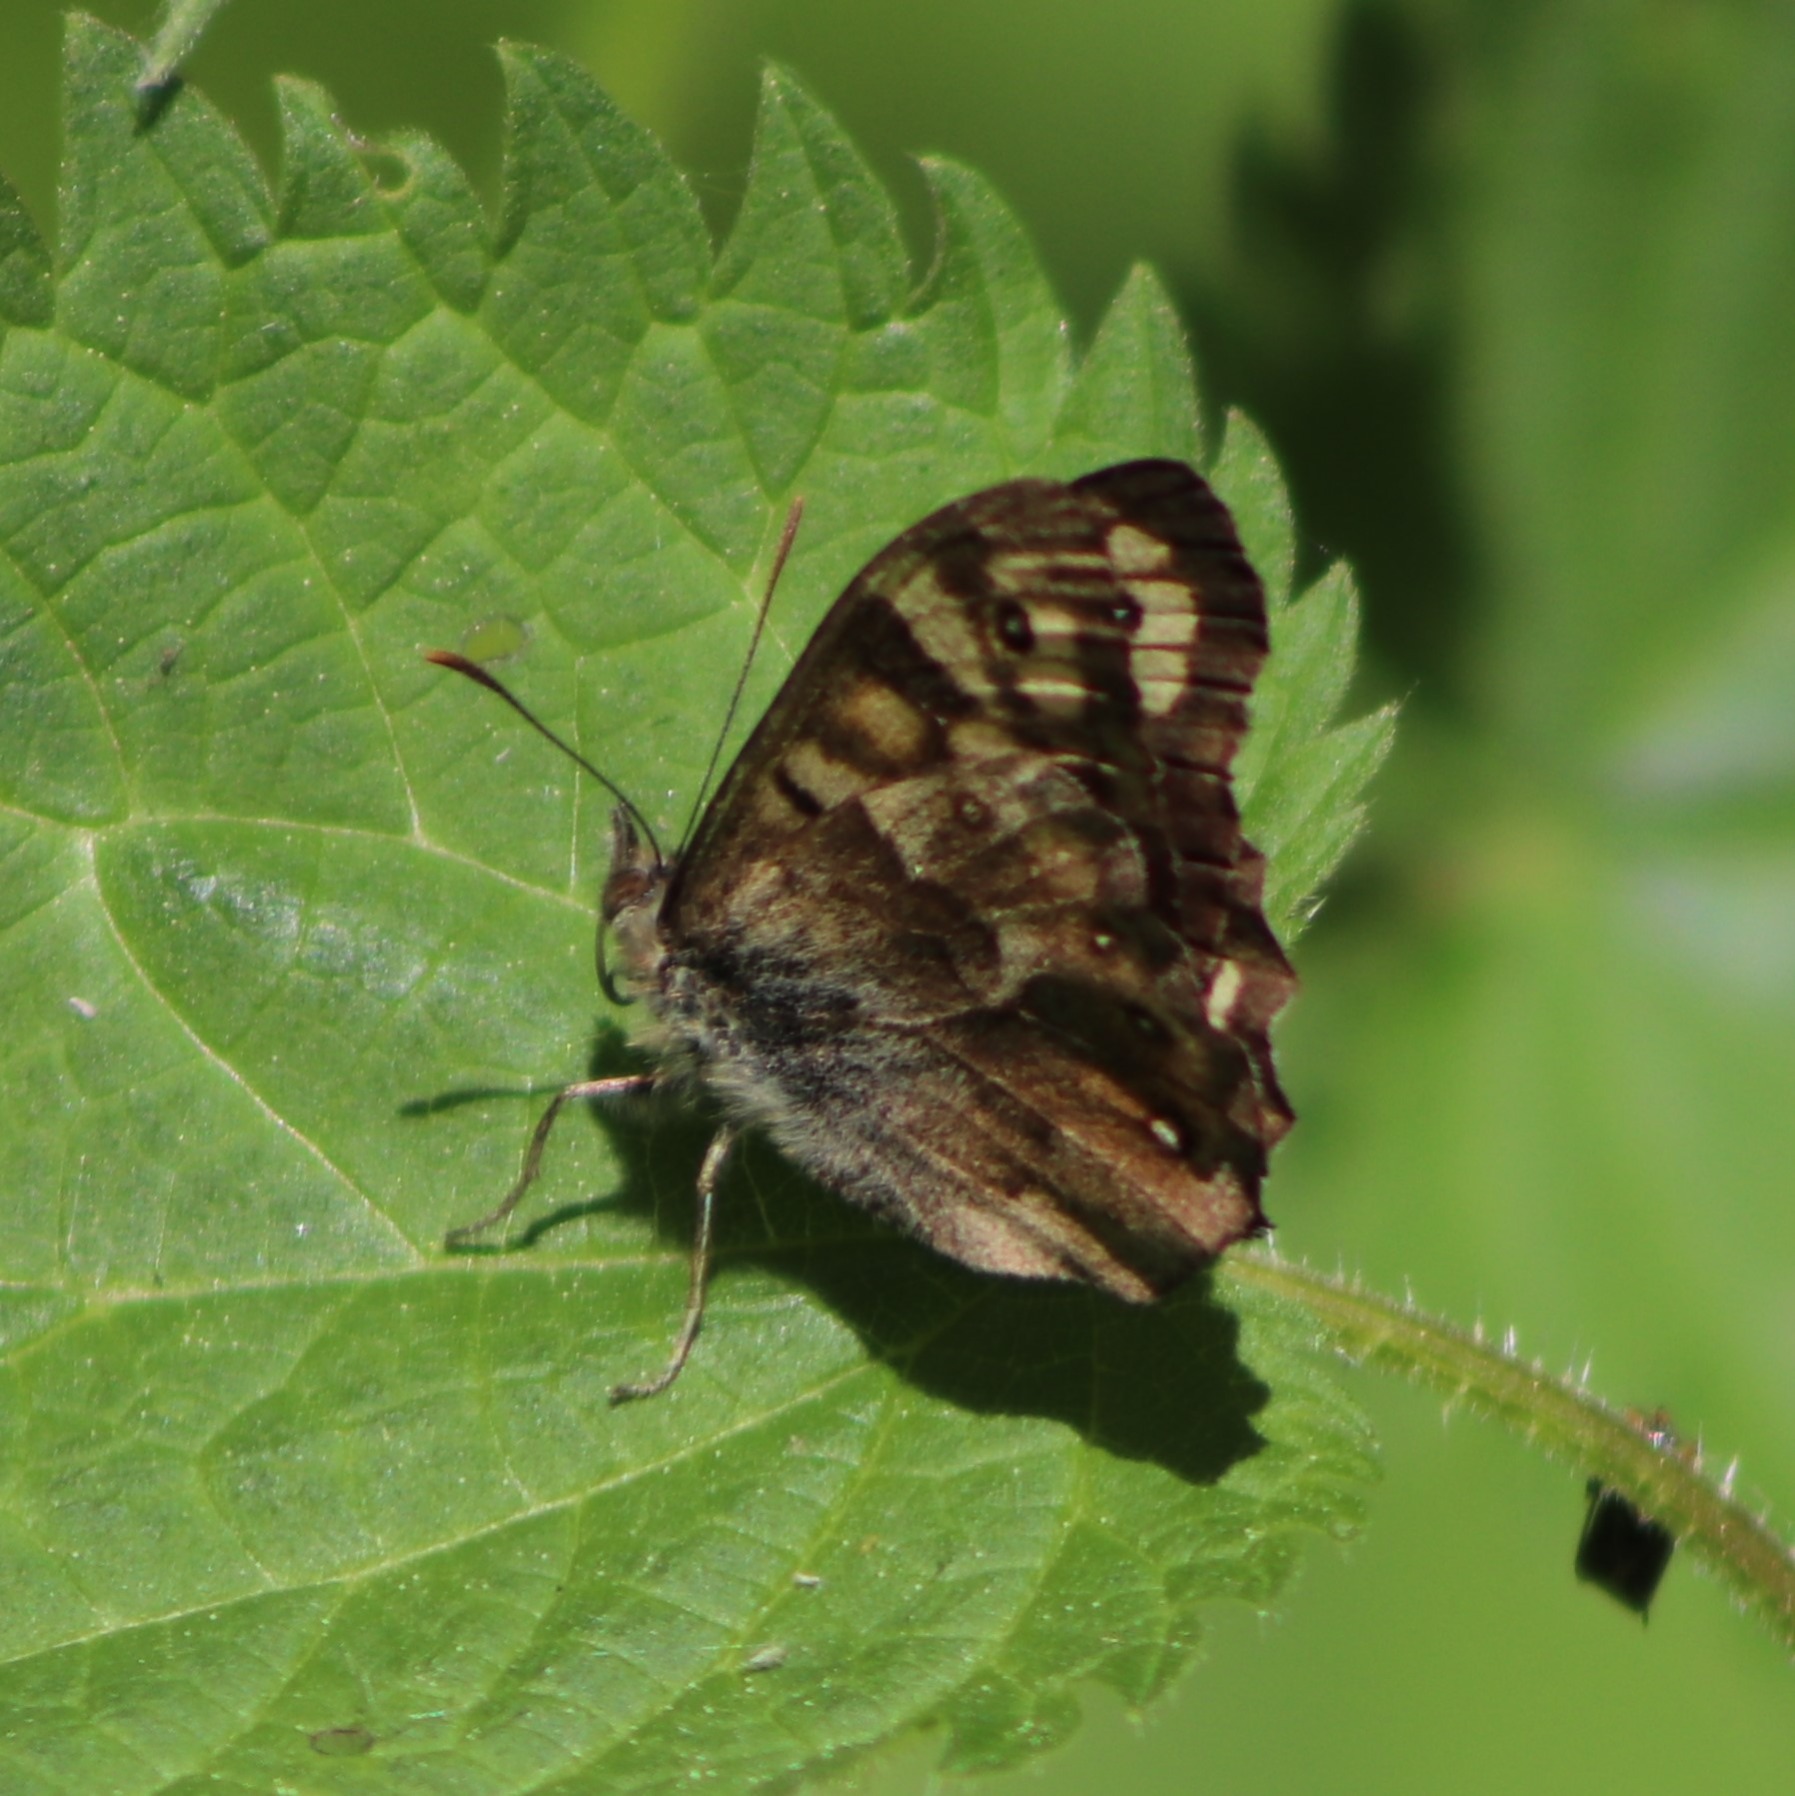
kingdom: Animalia
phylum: Arthropoda
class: Insecta
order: Lepidoptera
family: Nymphalidae
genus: Pararge
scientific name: Pararge aegeria
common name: Skovrandøje
